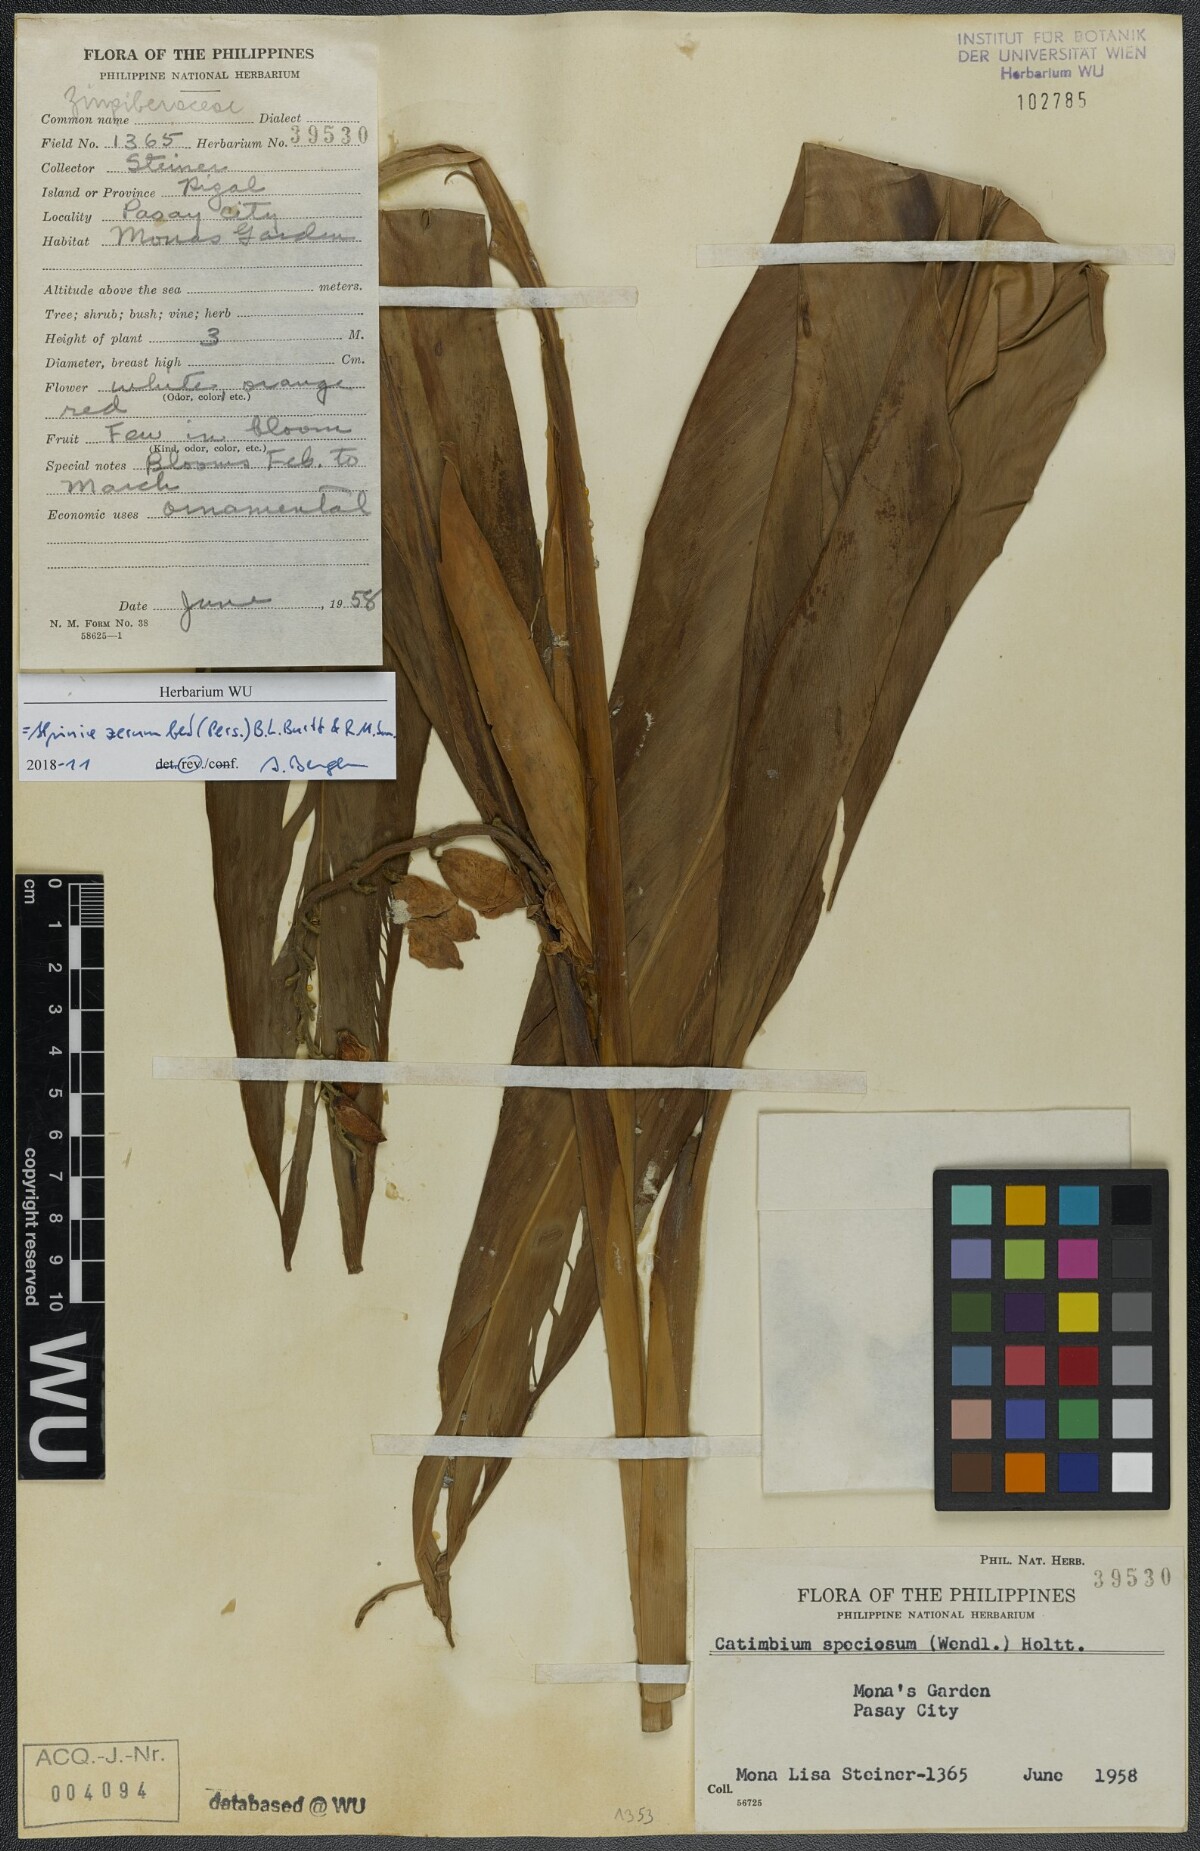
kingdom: Plantae
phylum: Tracheophyta
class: Liliopsida
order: Zingiberales
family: Zingiberaceae
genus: Alpinia
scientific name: Alpinia zerumbet
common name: Shellplant
